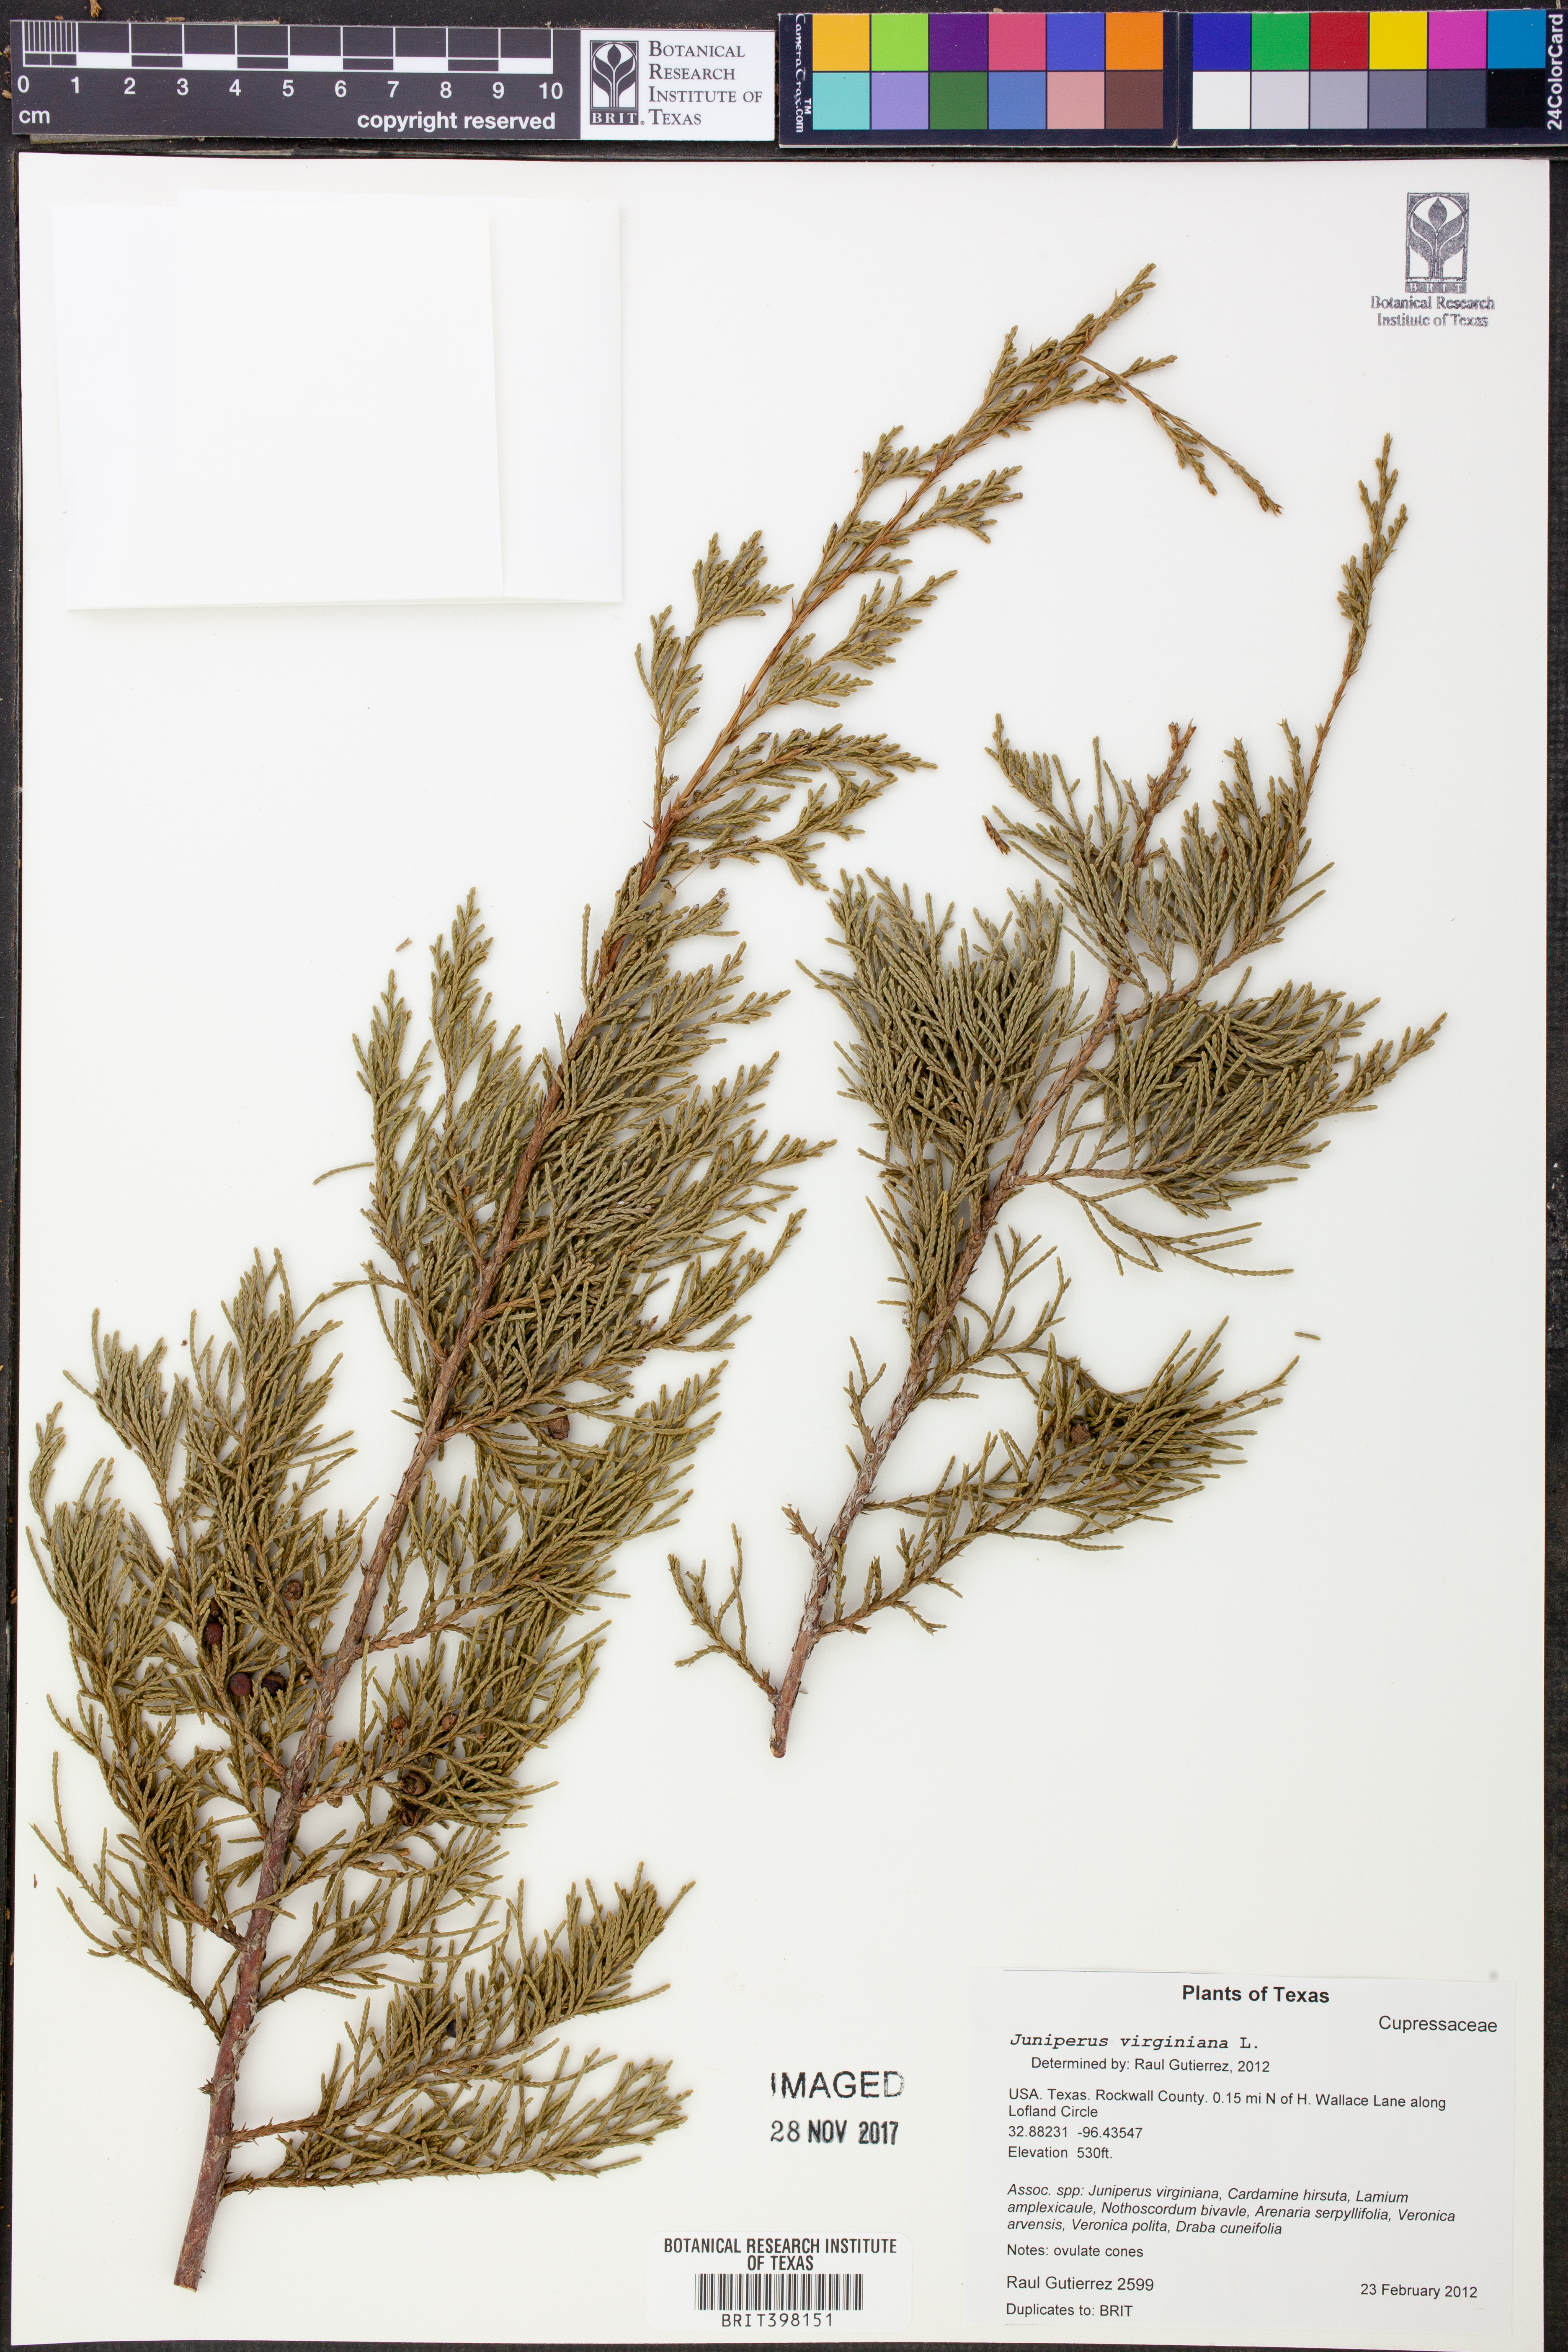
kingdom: Plantae
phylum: Tracheophyta
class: Pinopsida
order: Pinales
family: Cupressaceae
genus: Juniperus
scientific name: Juniperus virginiana
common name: Red juniper
